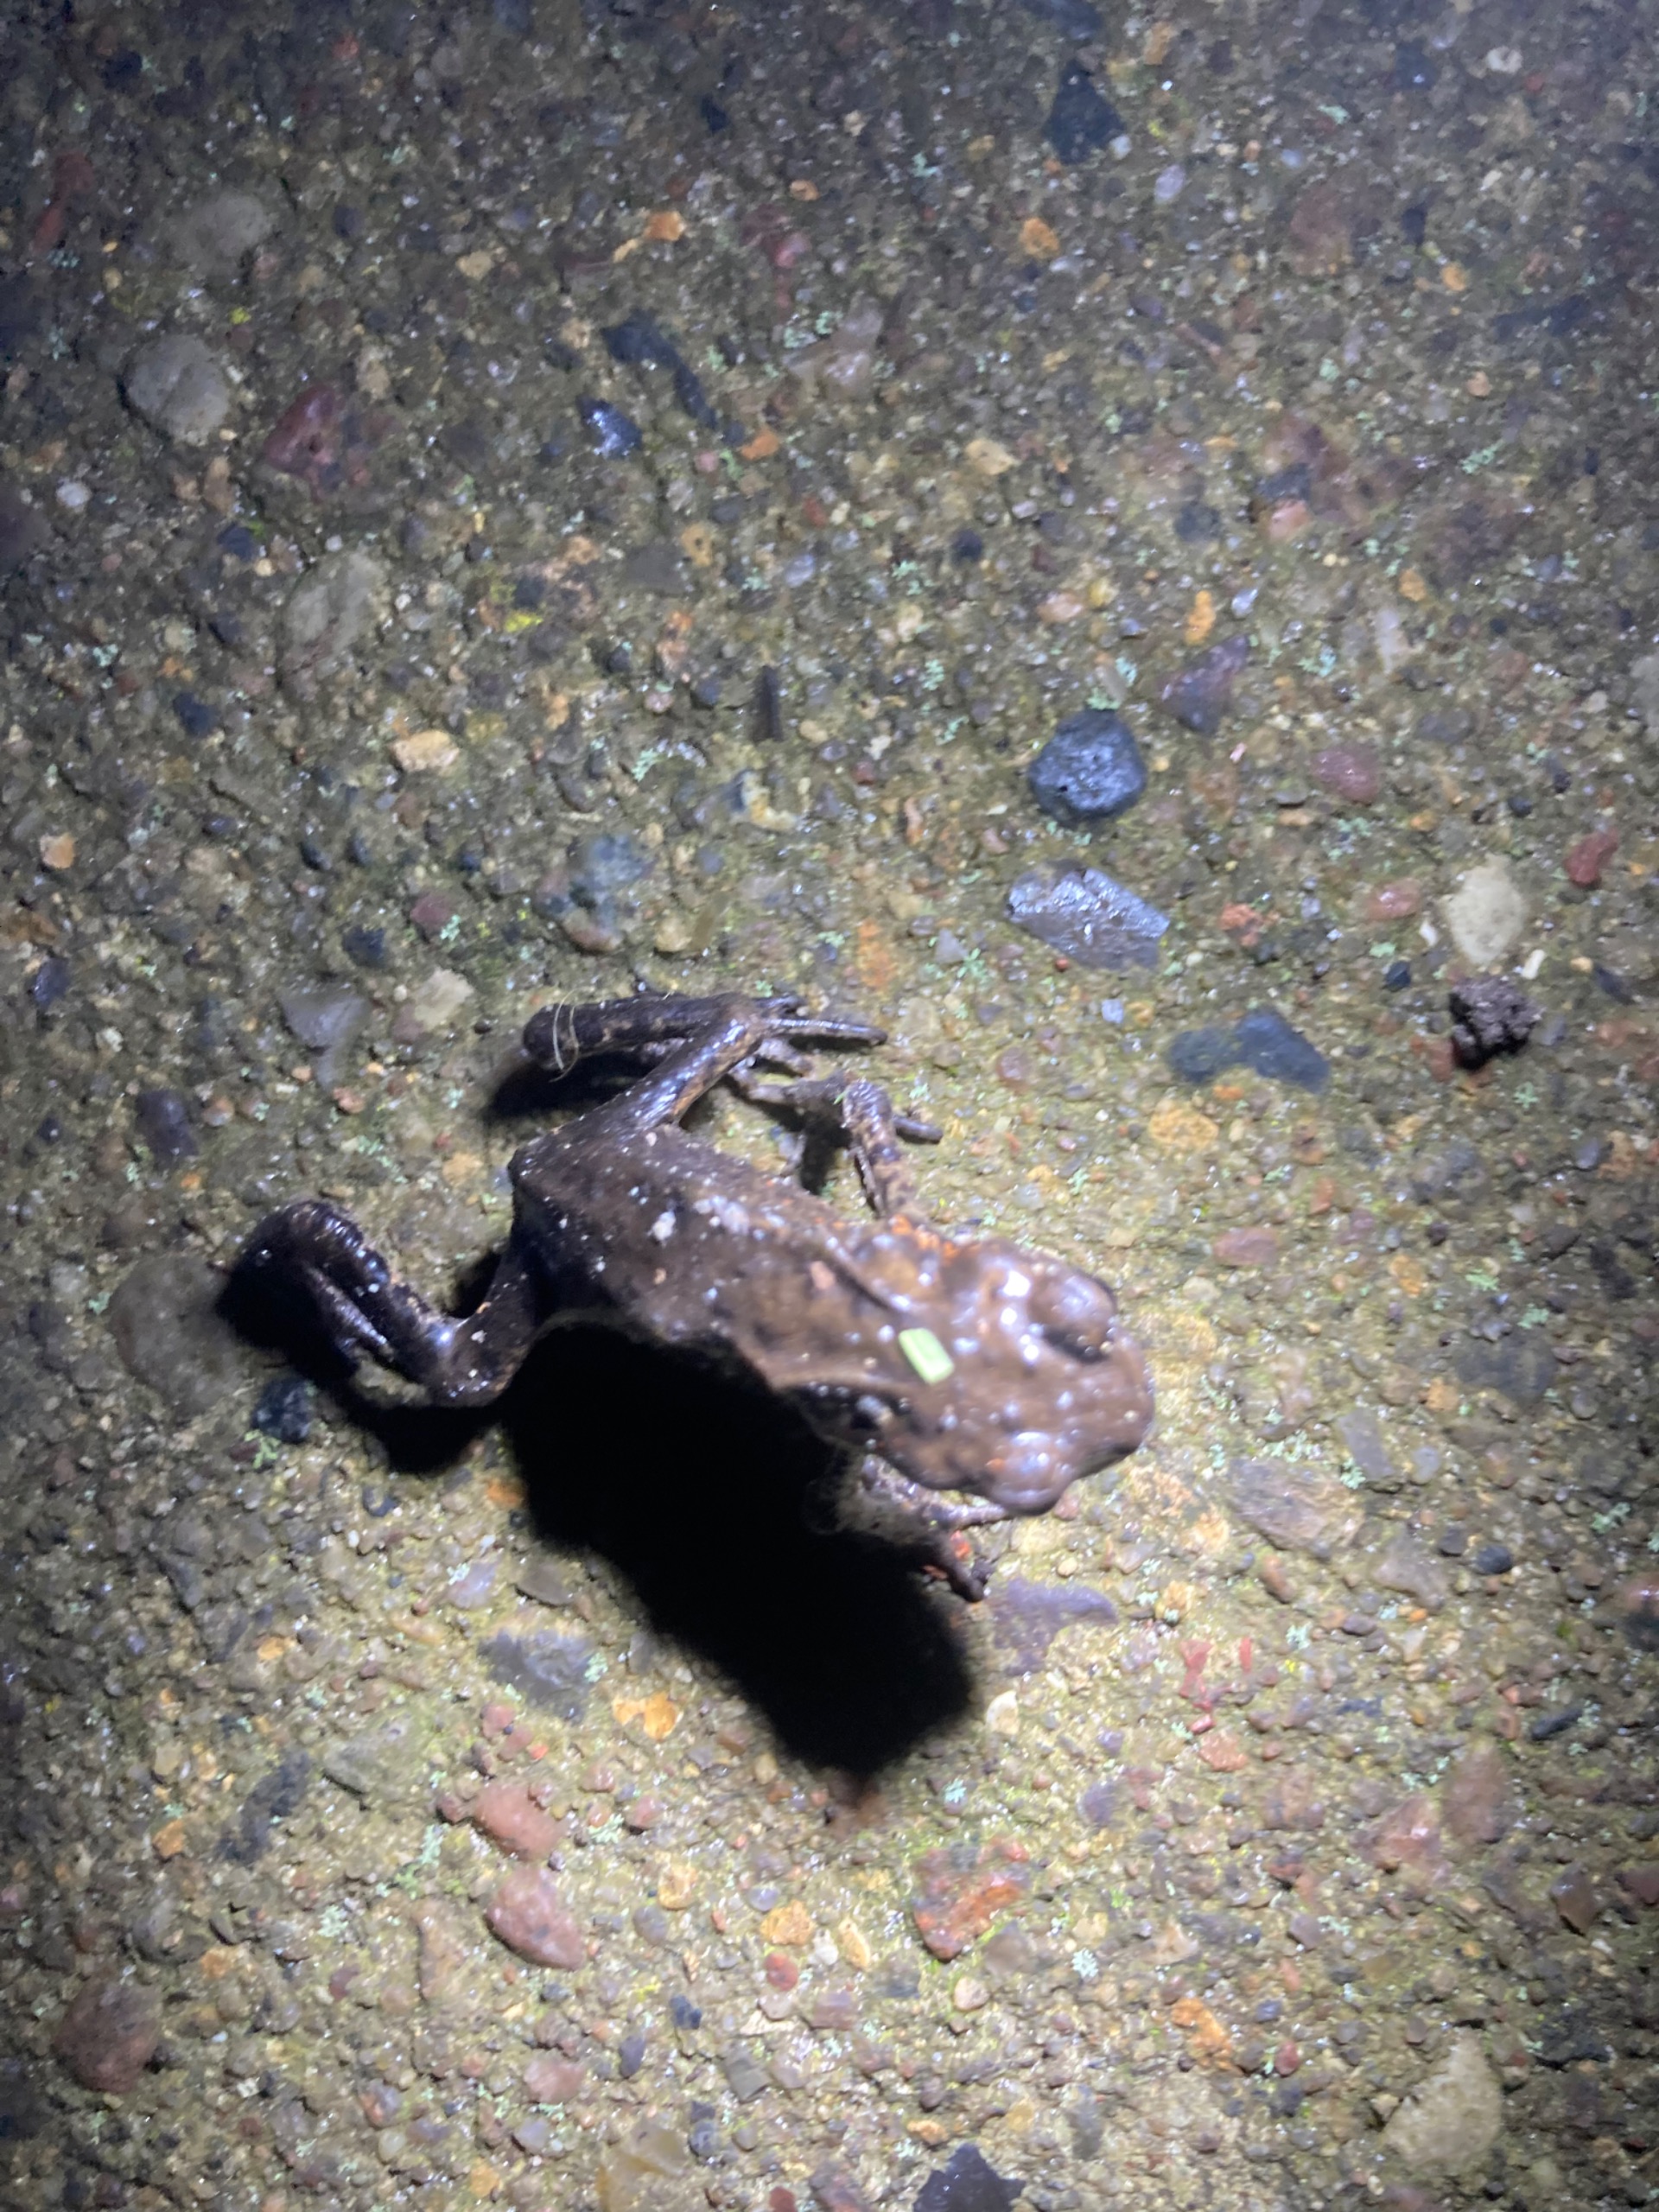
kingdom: Animalia
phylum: Chordata
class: Amphibia
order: Anura
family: Bufonidae
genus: Bufo
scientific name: Bufo bufo
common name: Skrubtudse
